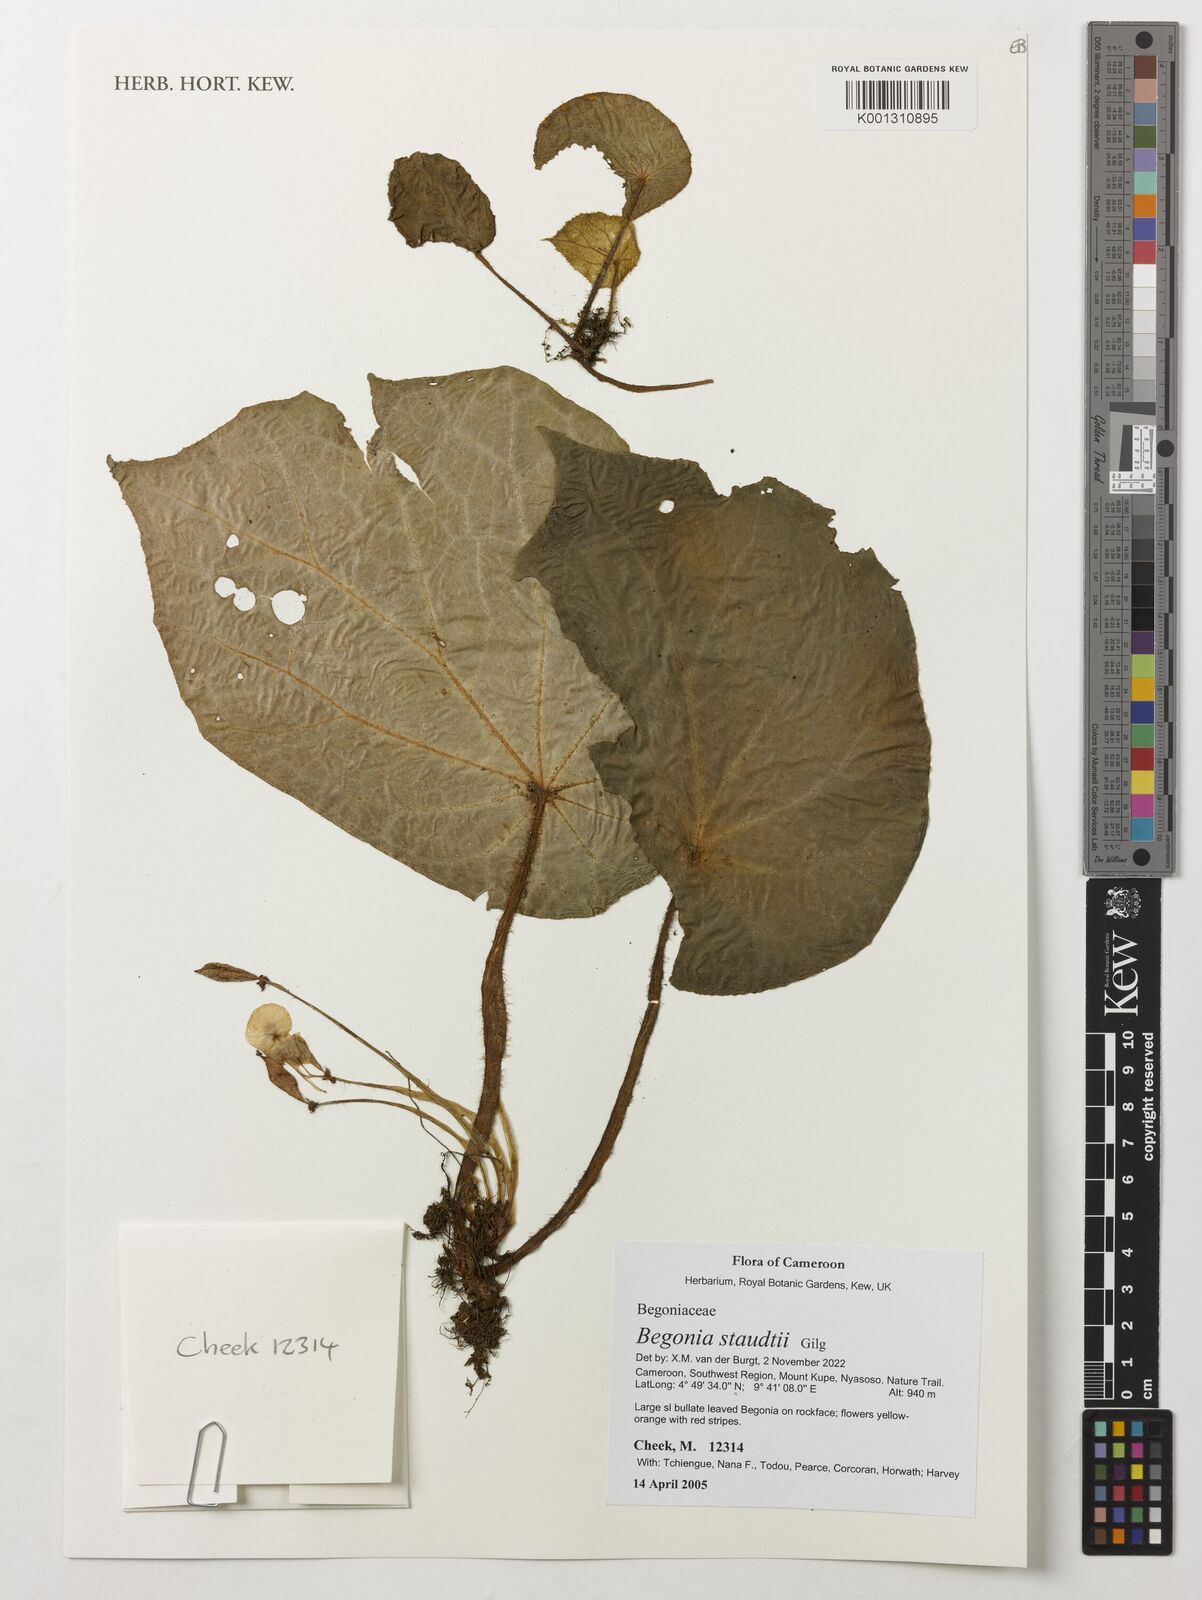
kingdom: Plantae
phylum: Tracheophyta
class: Magnoliopsida
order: Cucurbitales
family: Begoniaceae
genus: Begonia
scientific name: Begonia staudtii
